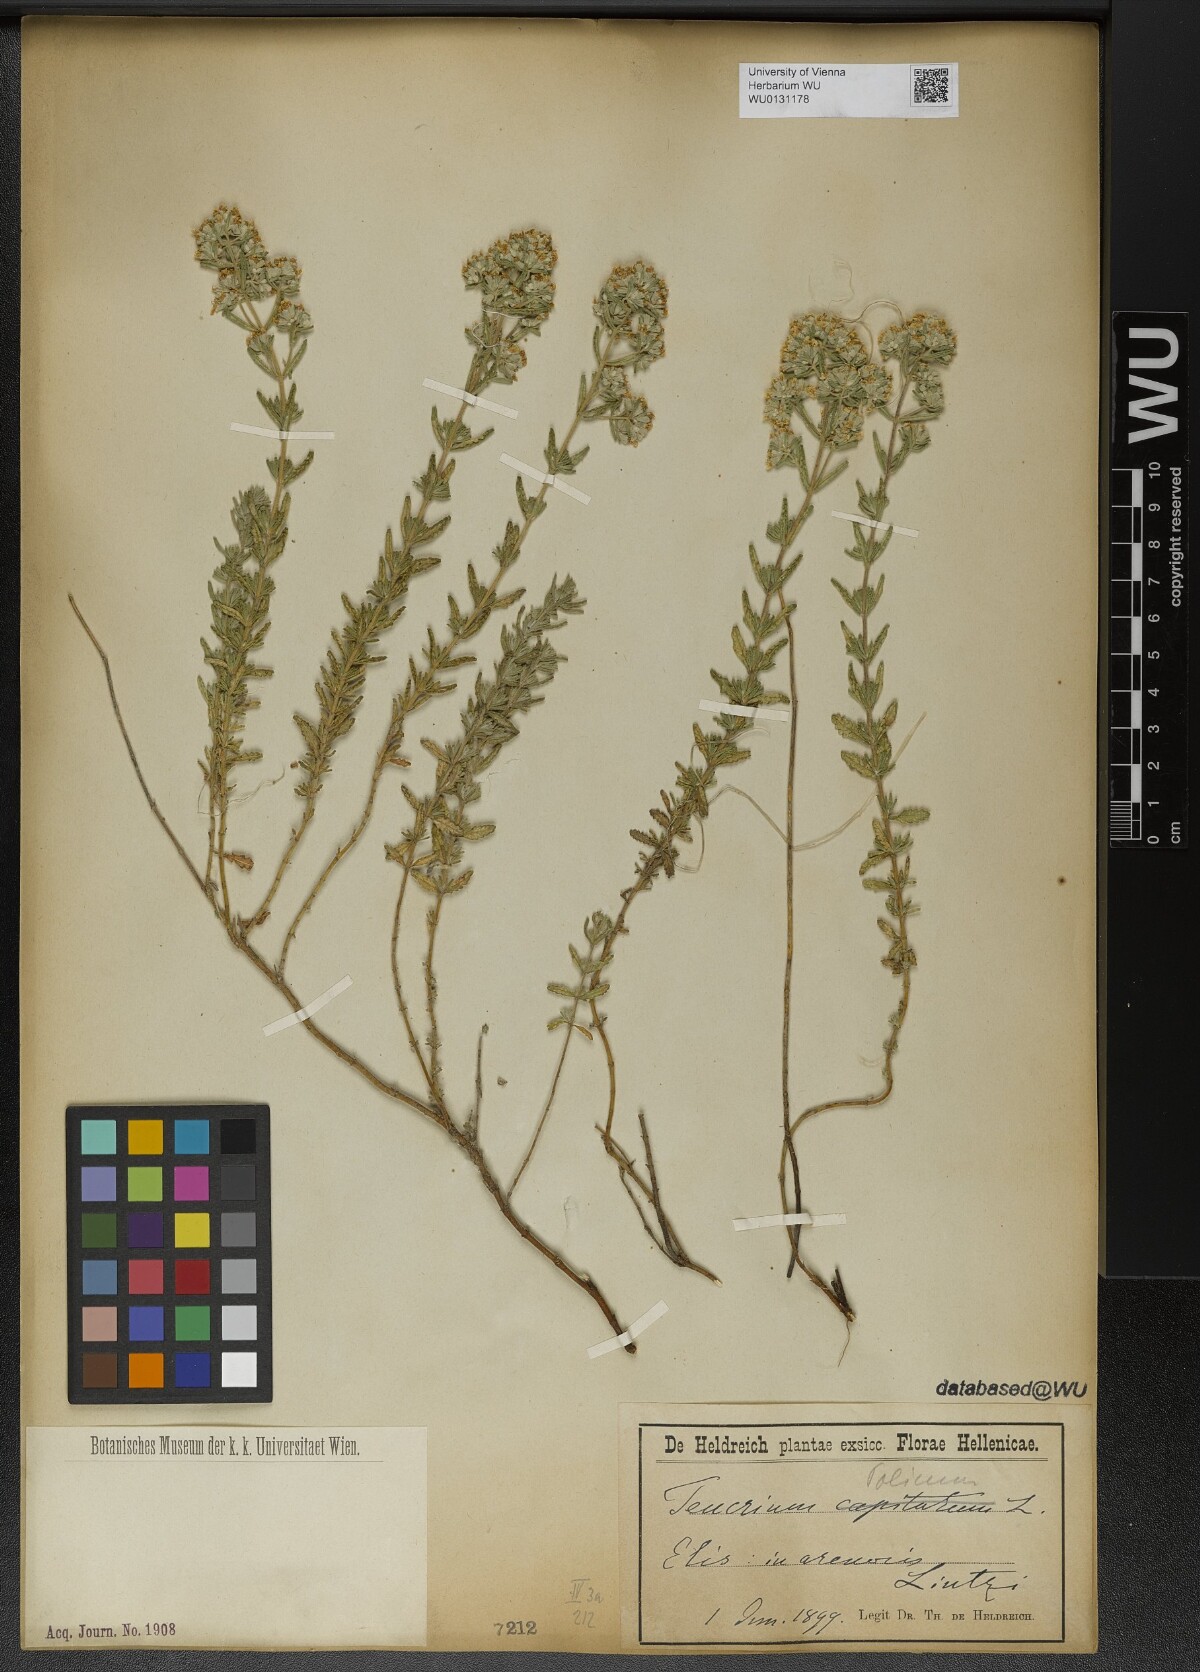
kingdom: Plantae
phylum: Tracheophyta
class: Magnoliopsida
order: Lamiales
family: Lamiaceae
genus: Teucrium
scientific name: Teucrium polium
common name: Poley
